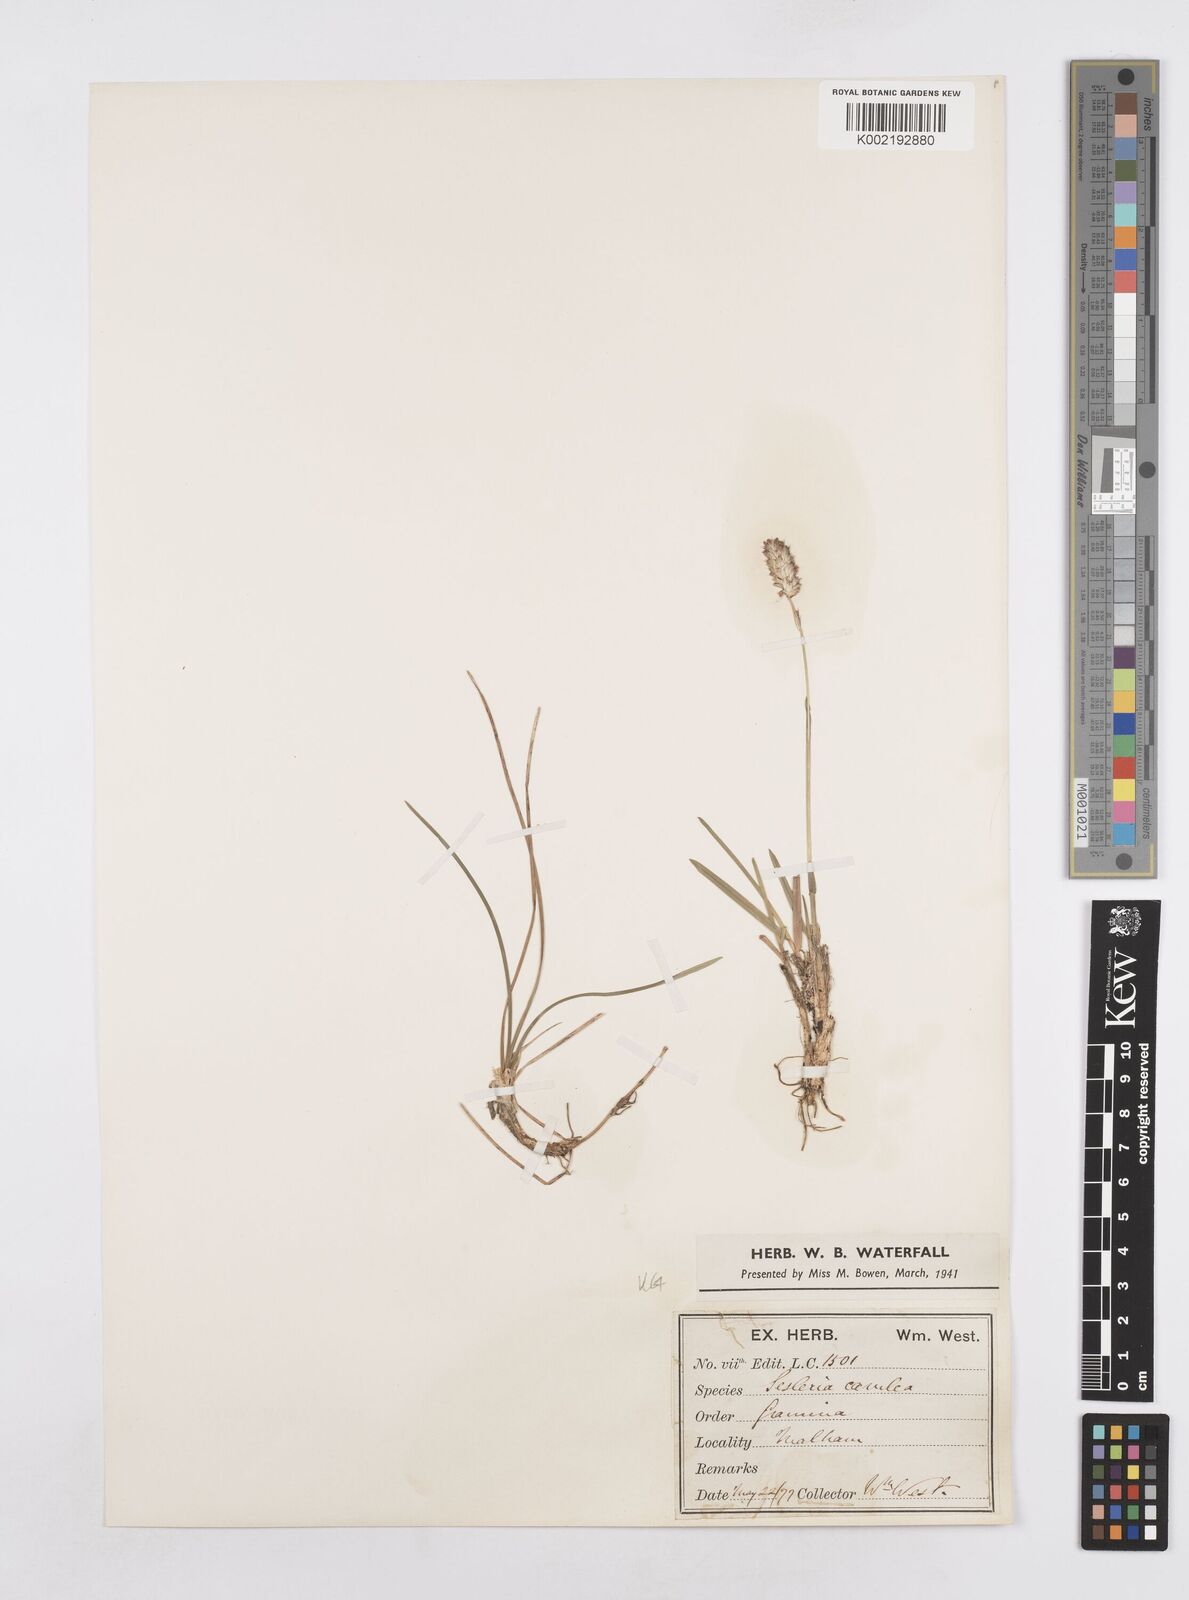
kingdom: Plantae
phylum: Tracheophyta
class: Liliopsida
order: Poales
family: Poaceae
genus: Sesleria
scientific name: Sesleria caerulea
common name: Blue moor-grass
